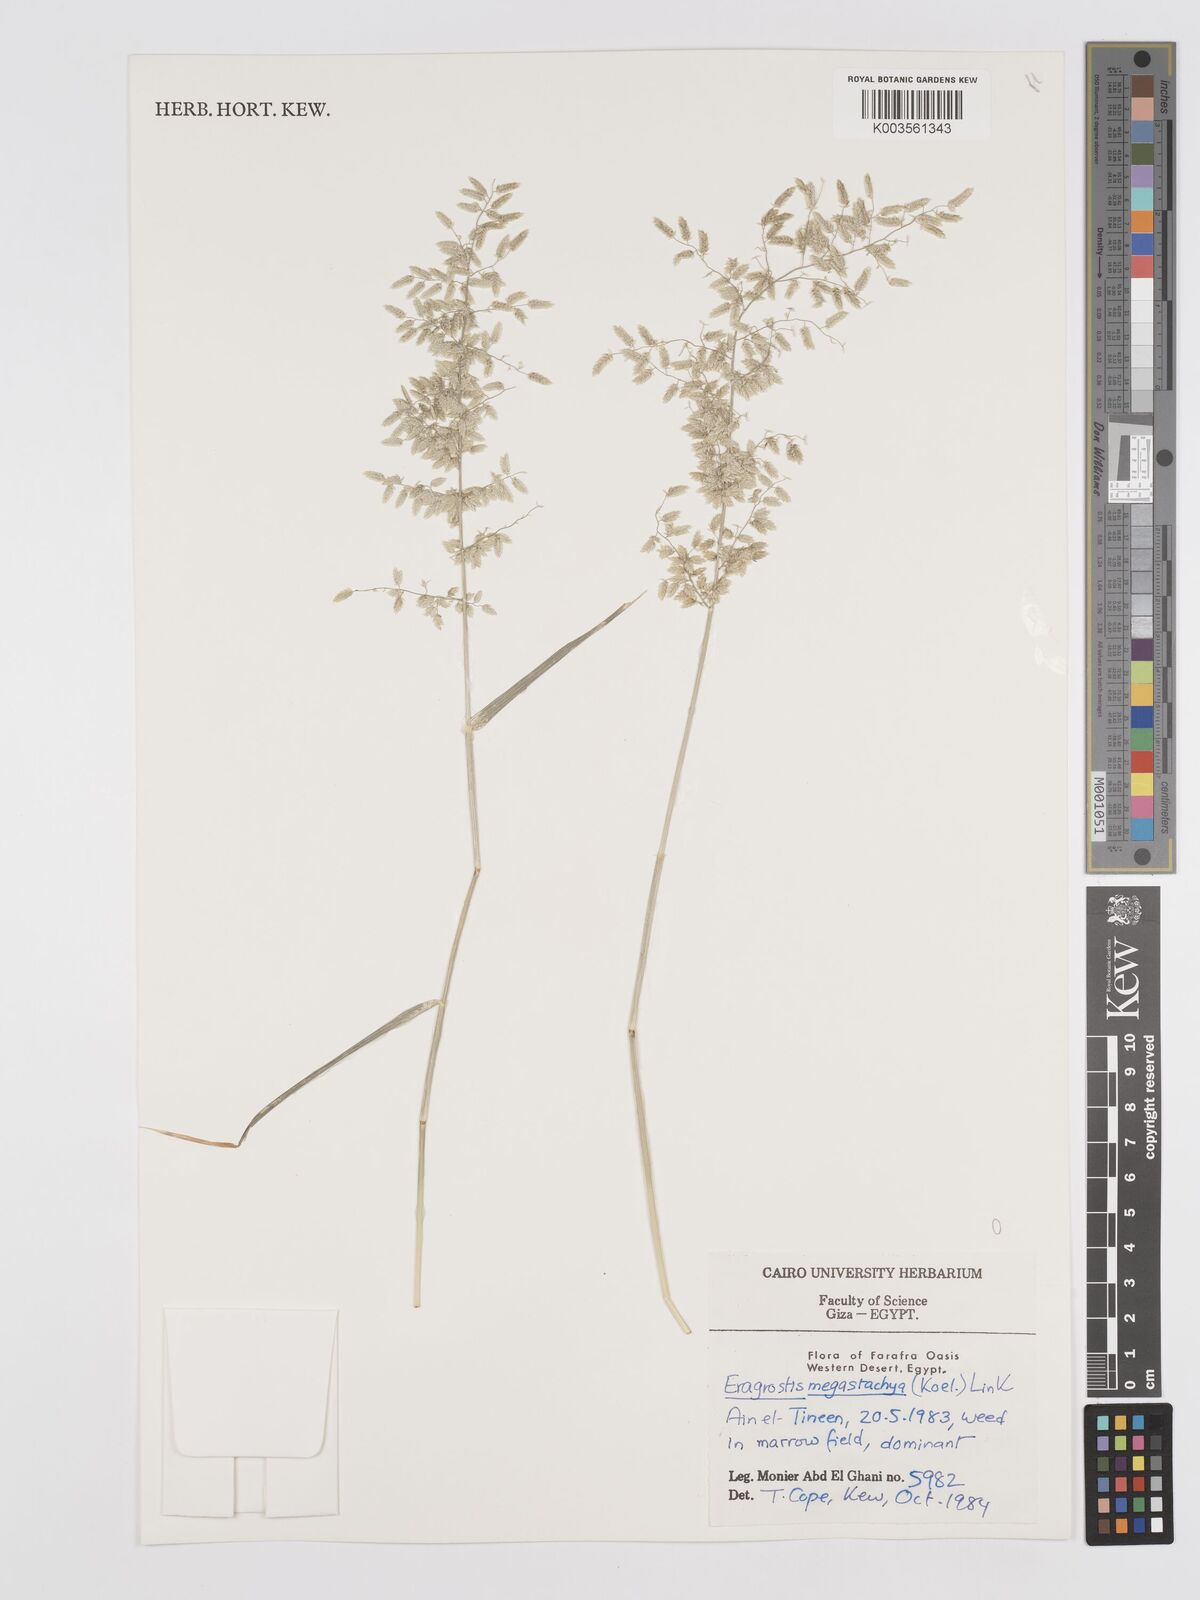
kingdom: Plantae
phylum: Tracheophyta
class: Liliopsida
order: Poales
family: Poaceae
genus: Eragrostis
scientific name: Eragrostis cilianensis
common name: Stinkgrass
